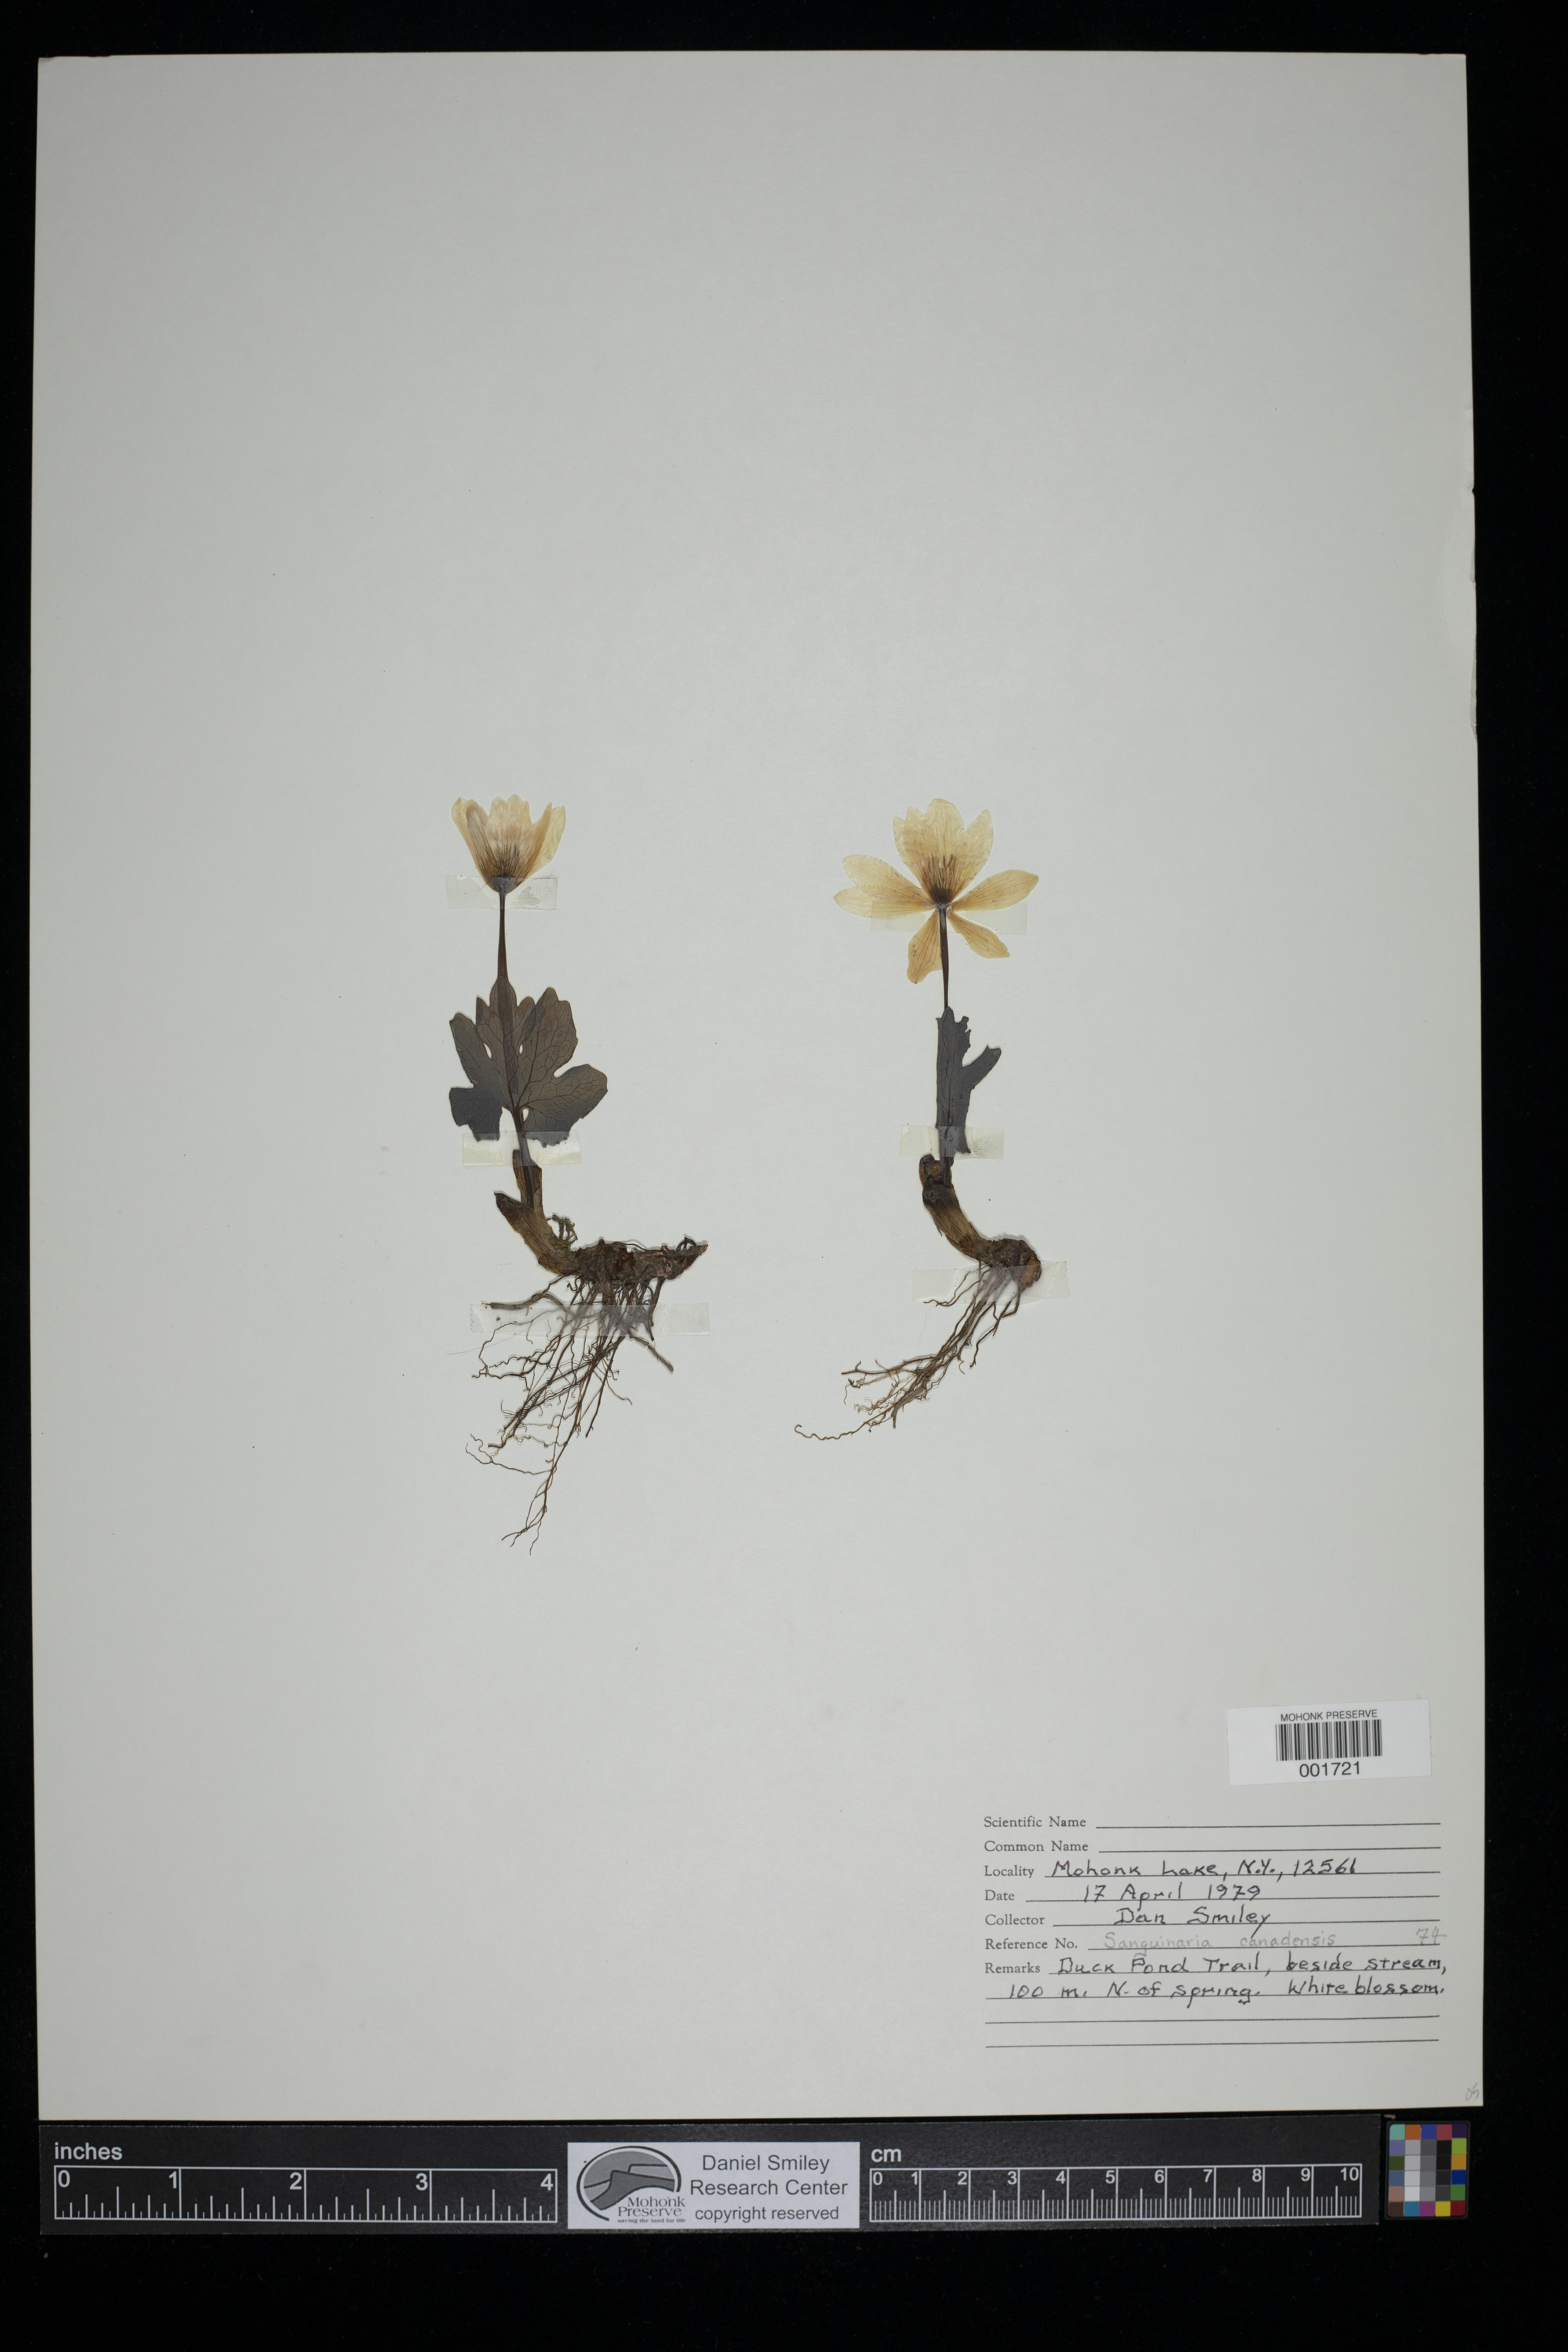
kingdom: Plantae
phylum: Tracheophyta
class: Magnoliopsida
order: Ranunculales
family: Papaveraceae
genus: Sanguinaria
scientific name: Sanguinaria canadensis
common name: Bloodroot
